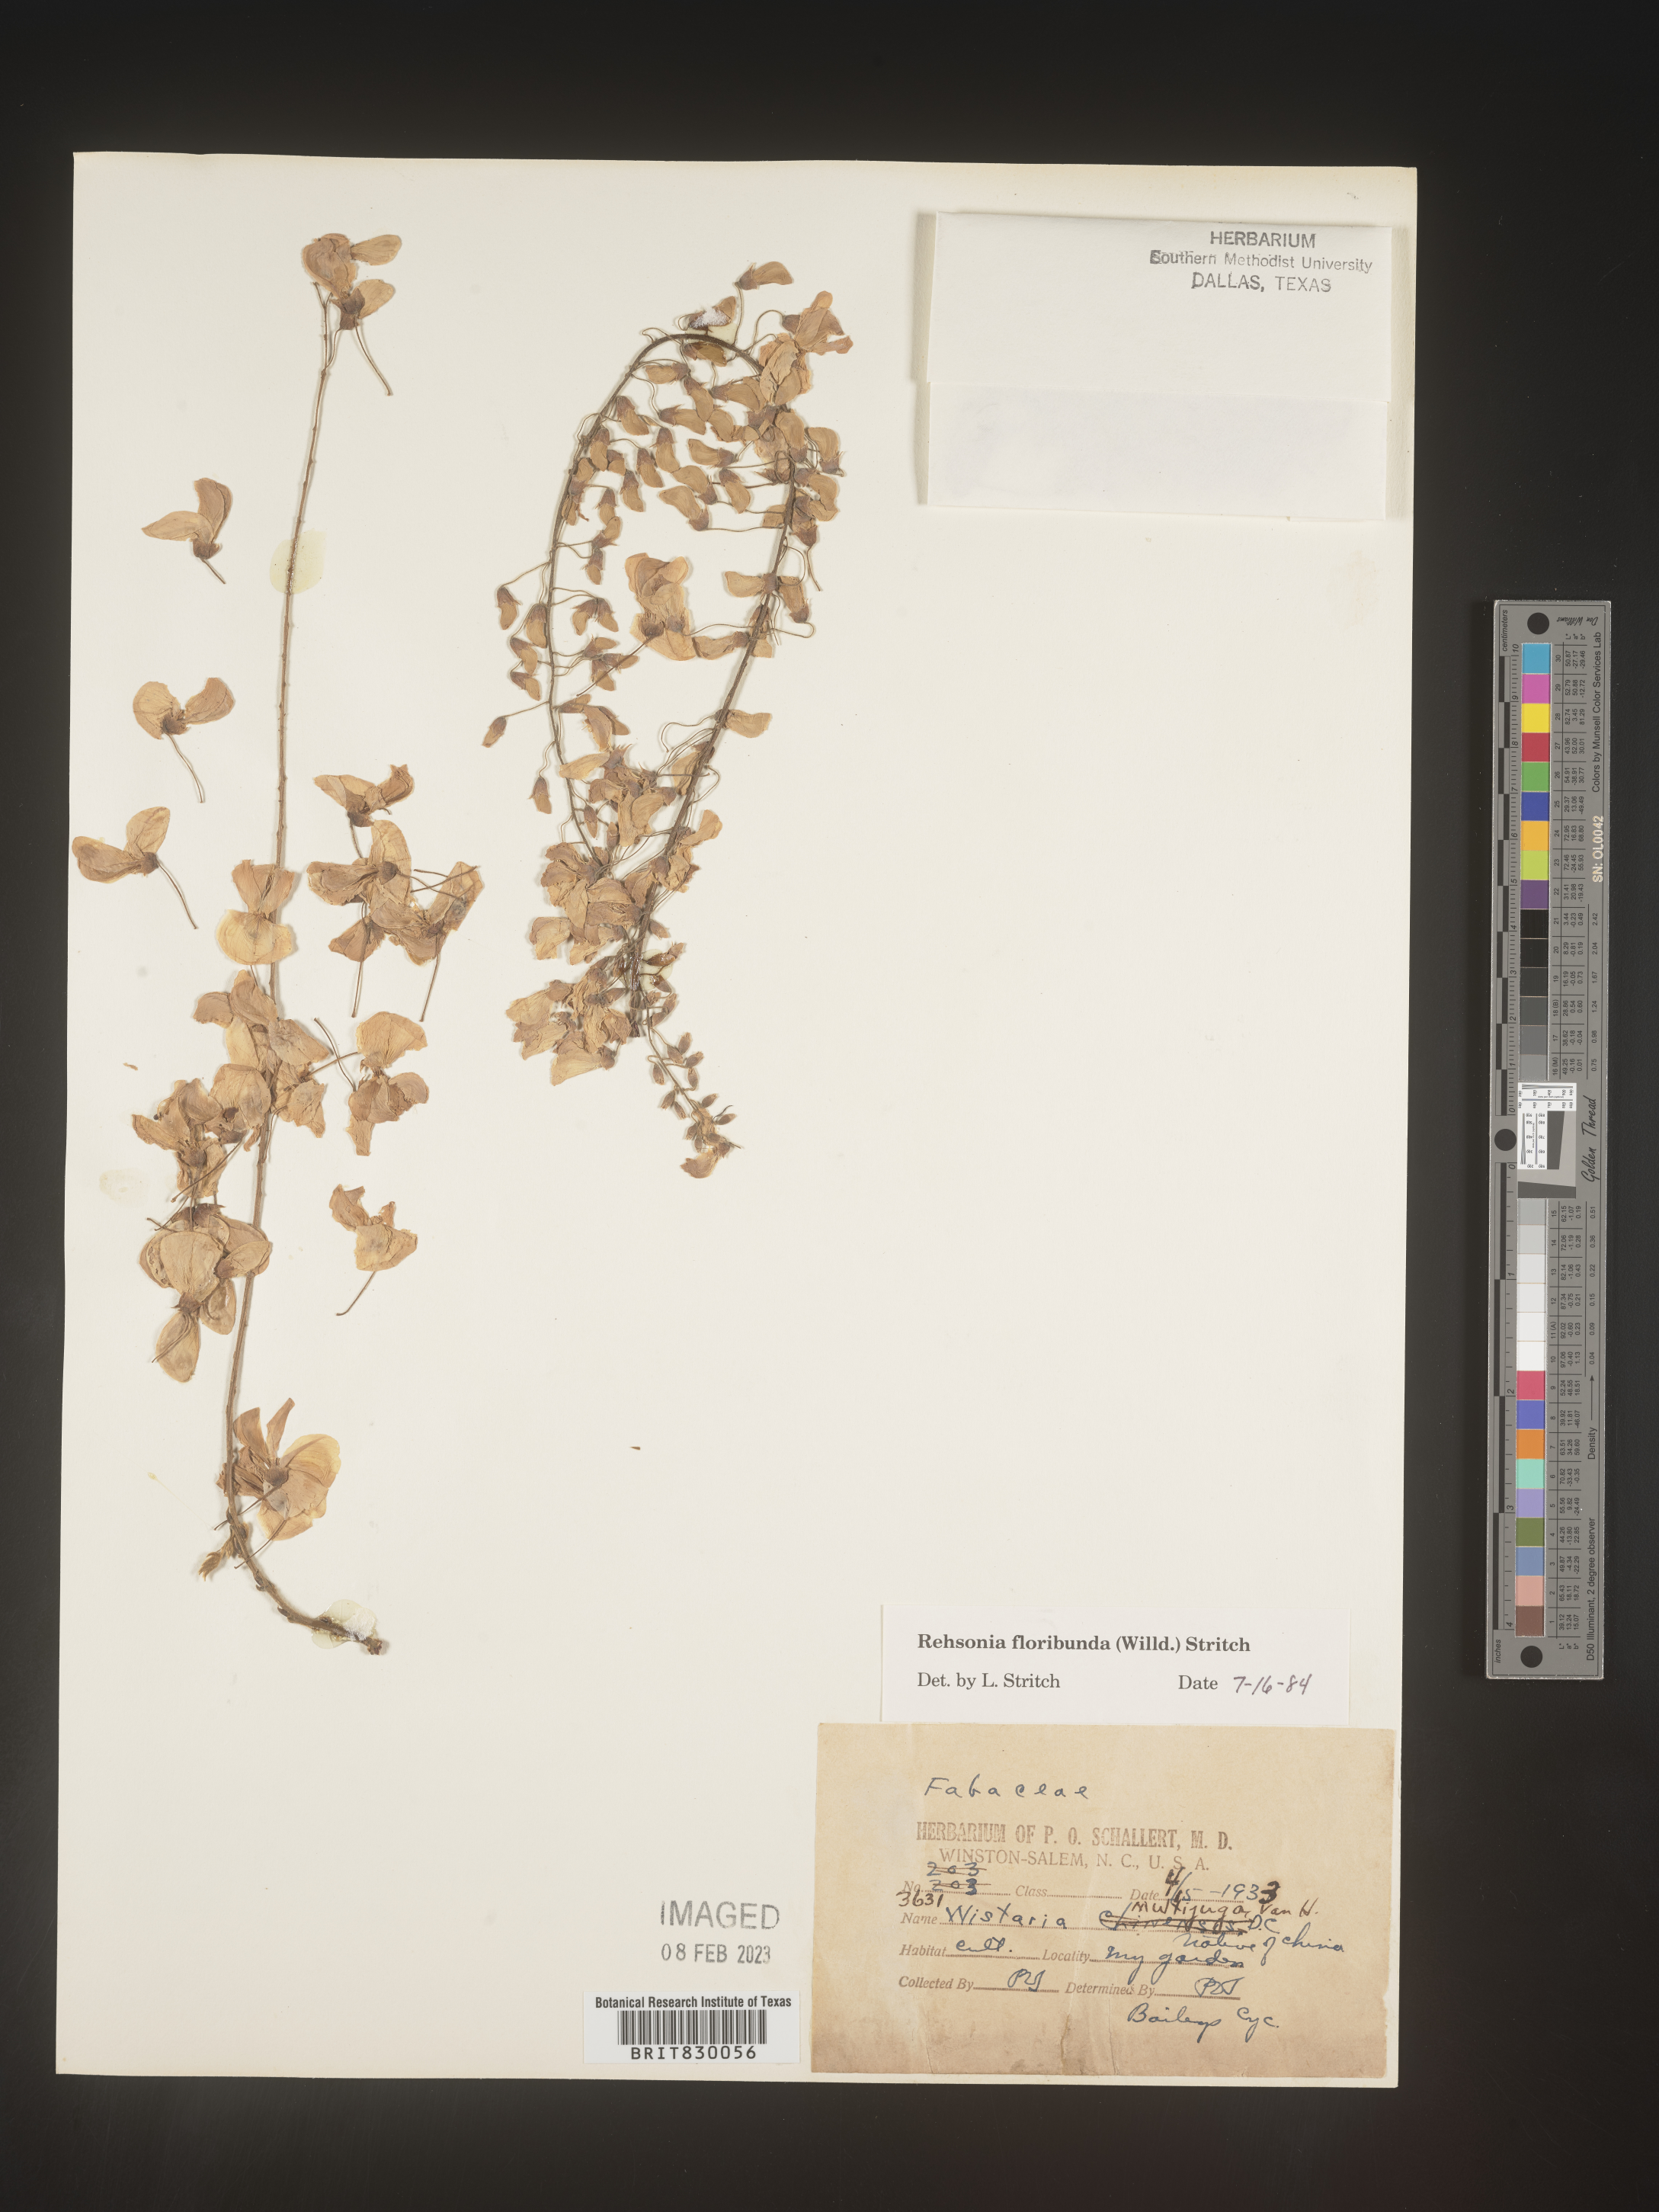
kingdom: Plantae
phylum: Tracheophyta
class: Magnoliopsida
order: Fabales
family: Fabaceae
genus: Wisteria
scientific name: Wisteria
